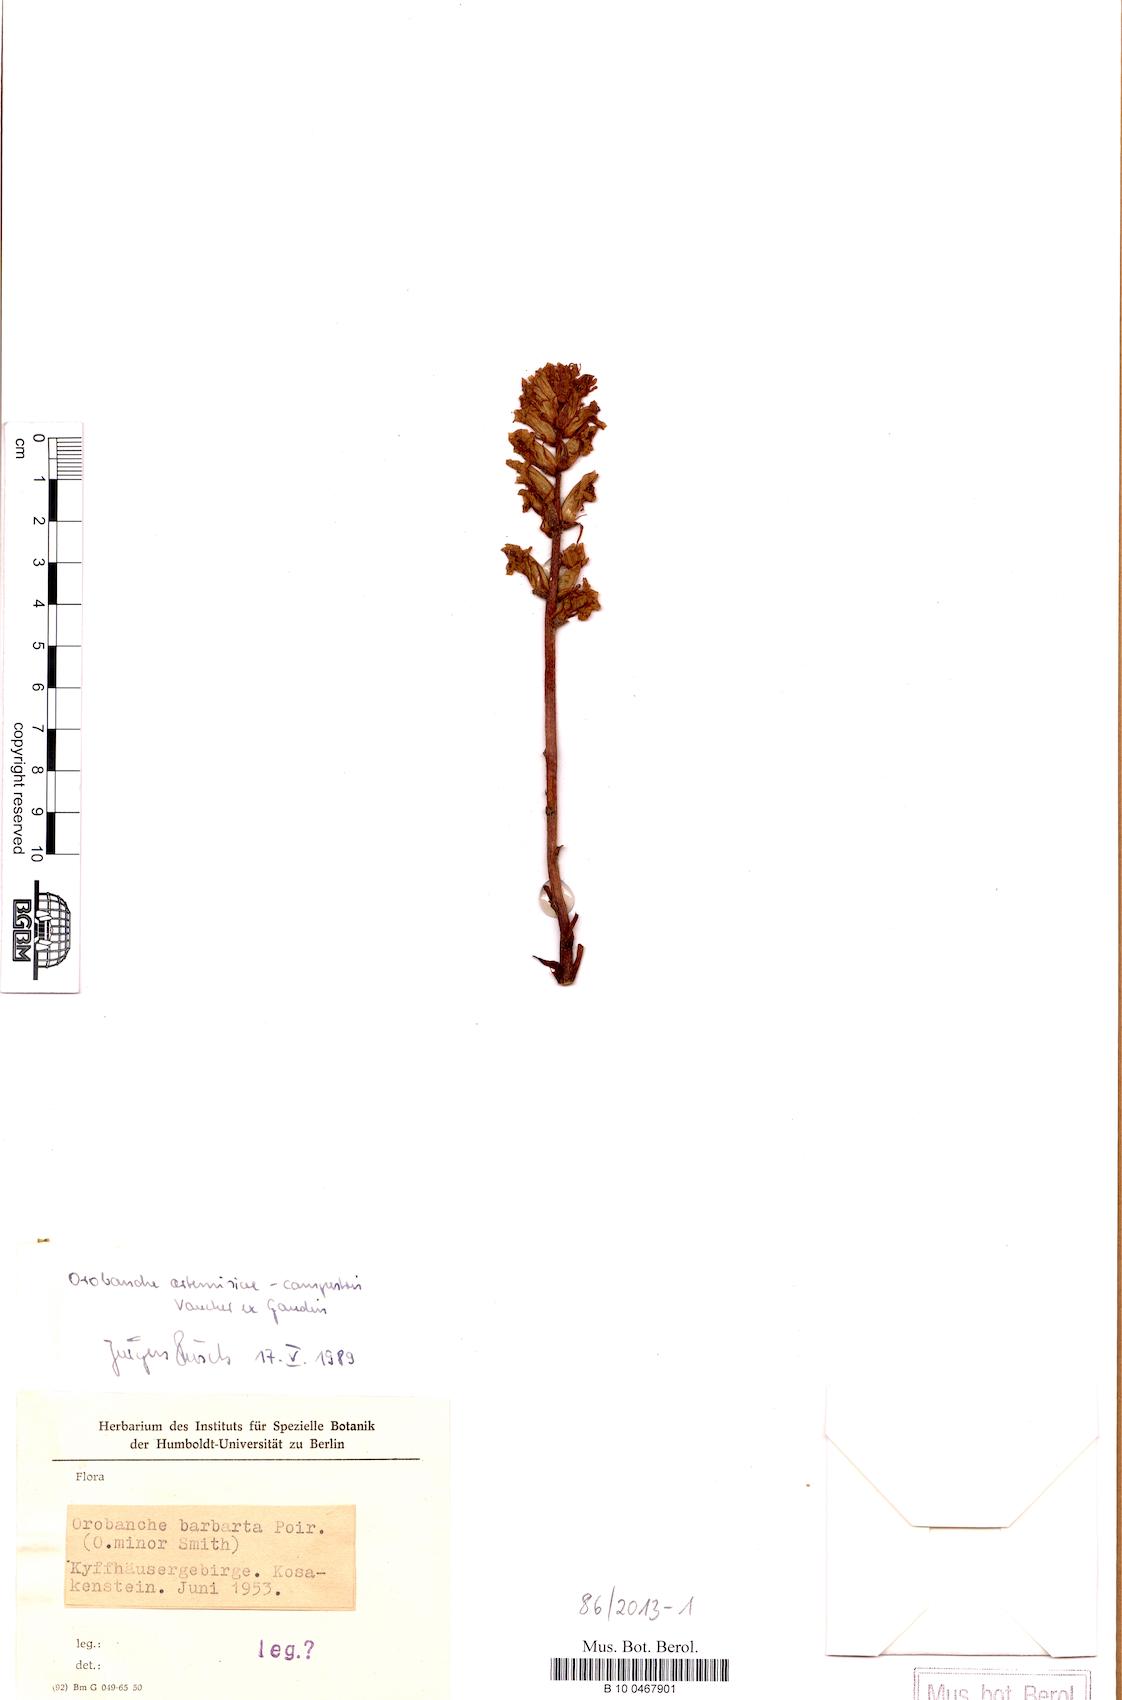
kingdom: Plantae
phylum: Tracheophyta
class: Magnoliopsida
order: Lamiales
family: Orobanchaceae
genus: Orobanche
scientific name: Orobanche artemisiae-campestris
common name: Oxtongue broomrape
